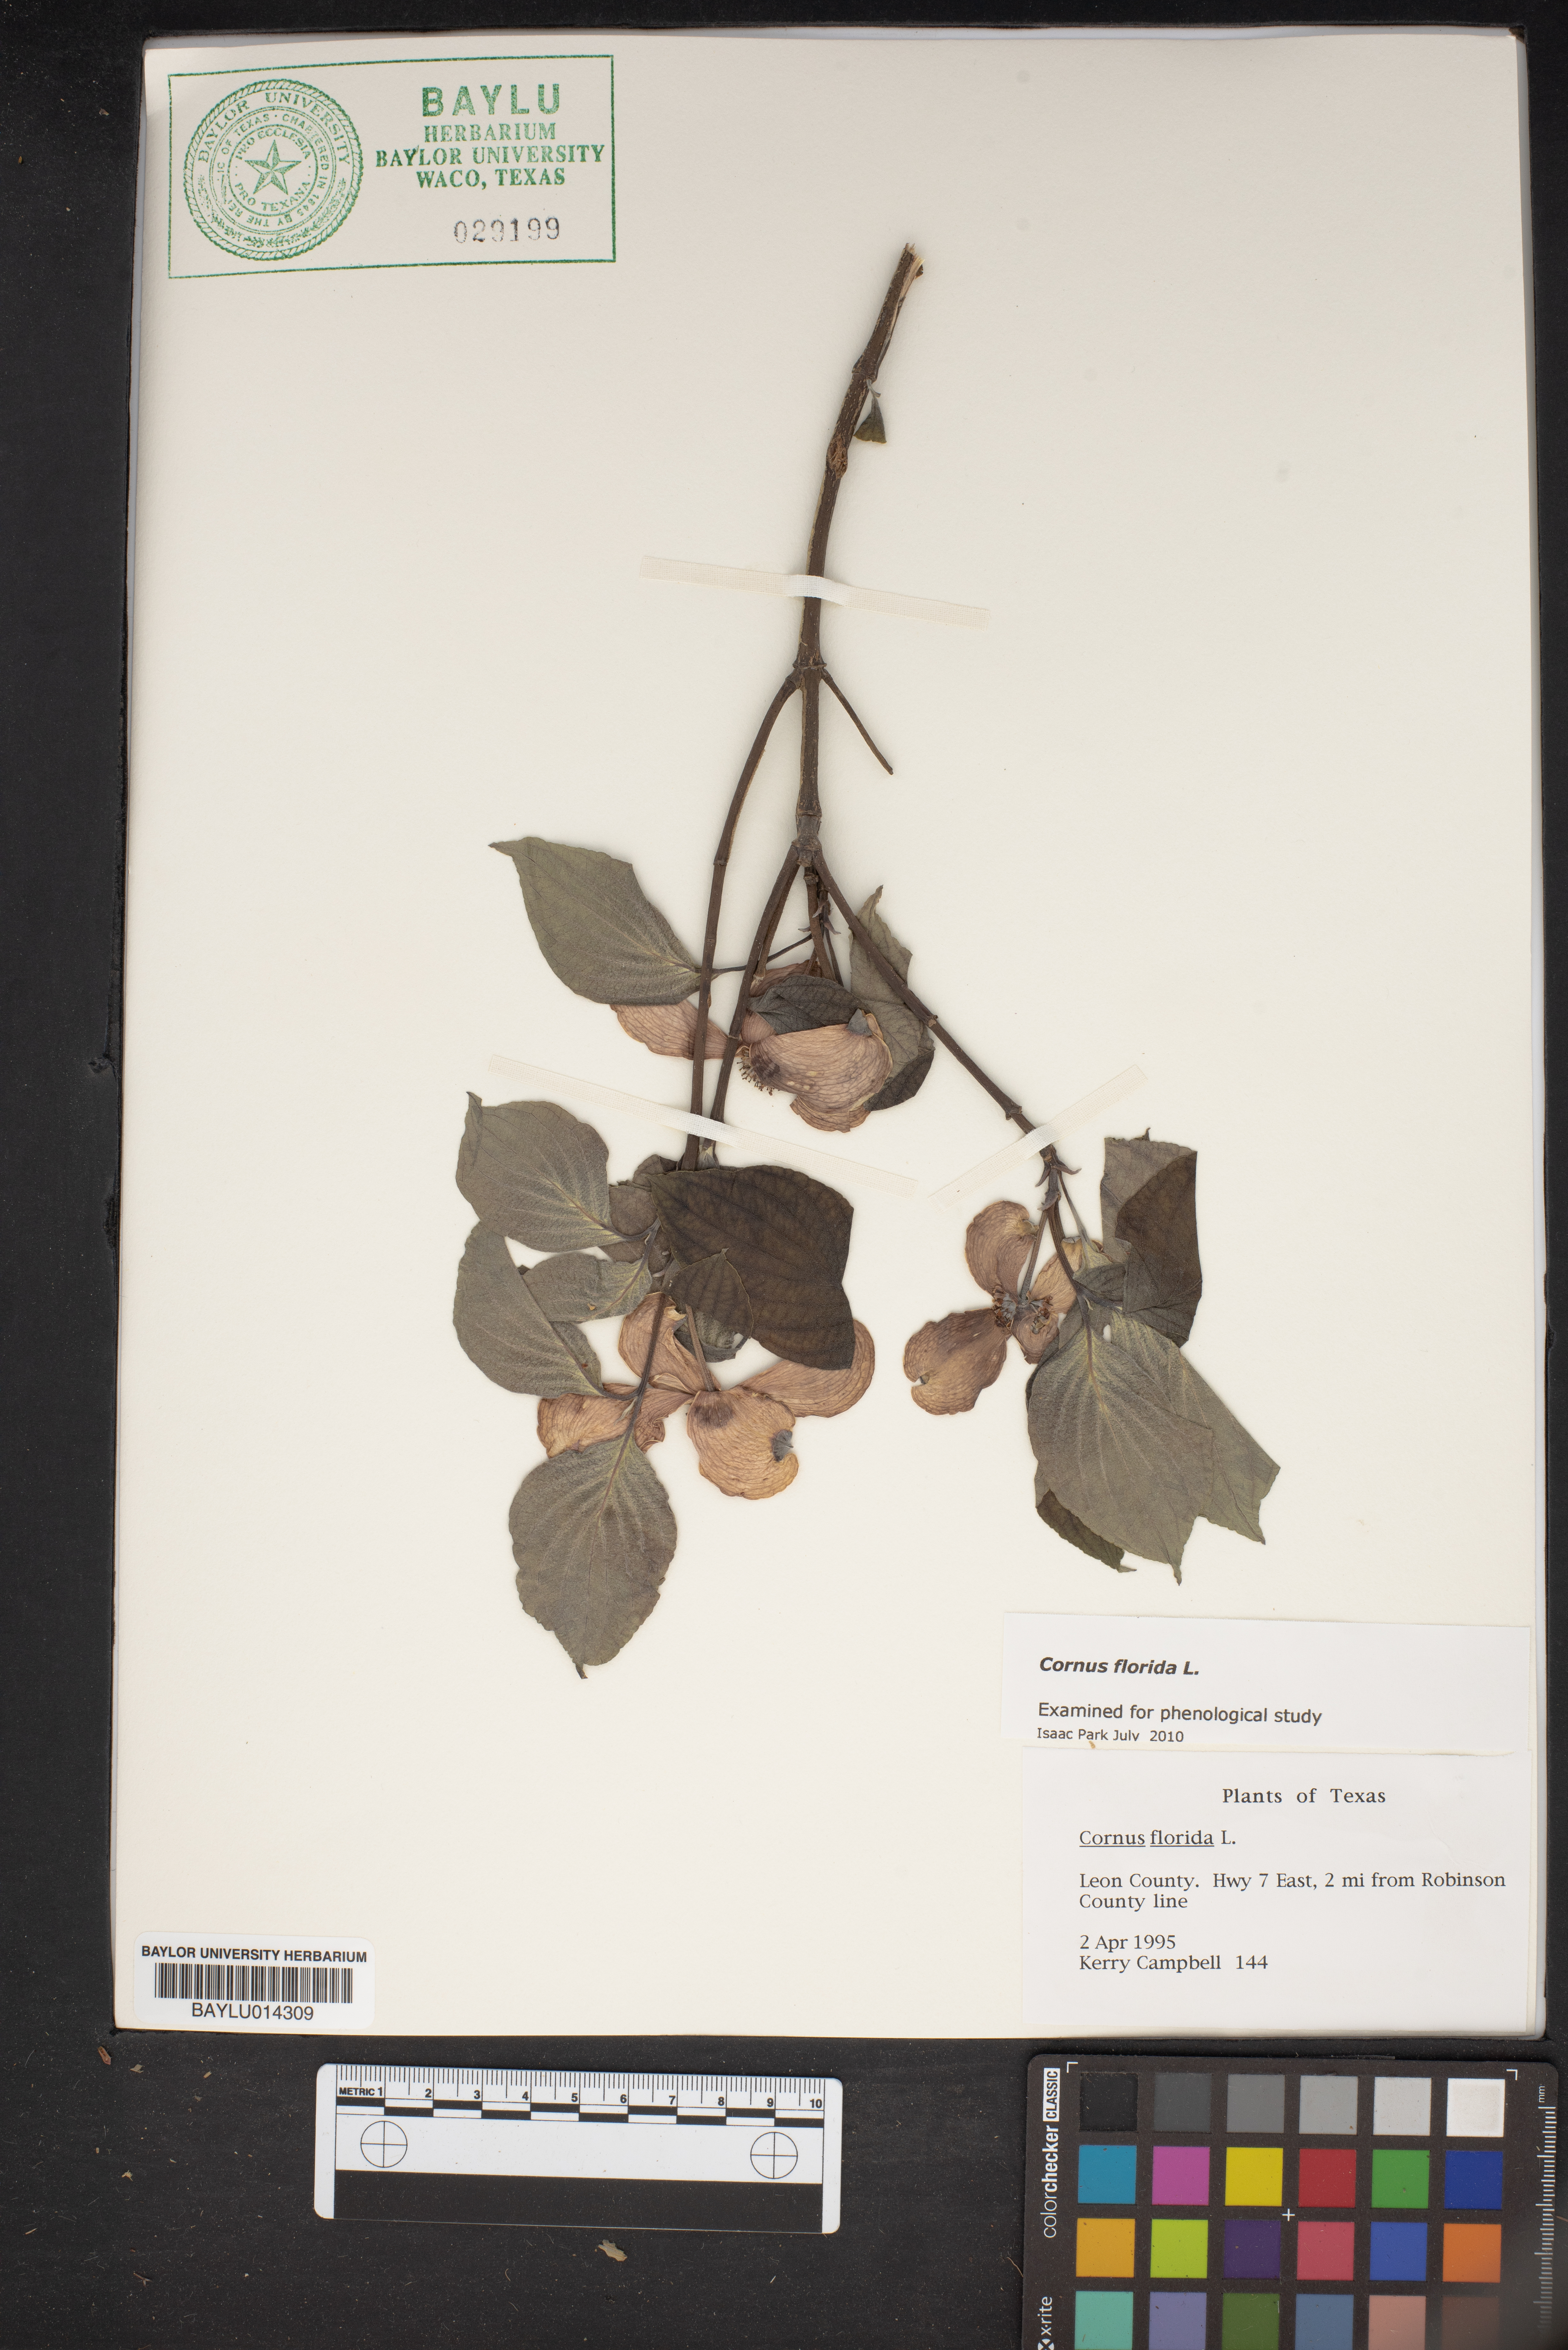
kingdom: Plantae
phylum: Tracheophyta
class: Magnoliopsida
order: Cornales
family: Cornaceae
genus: Cornus
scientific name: Cornus florida
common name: Flowering dogwood
